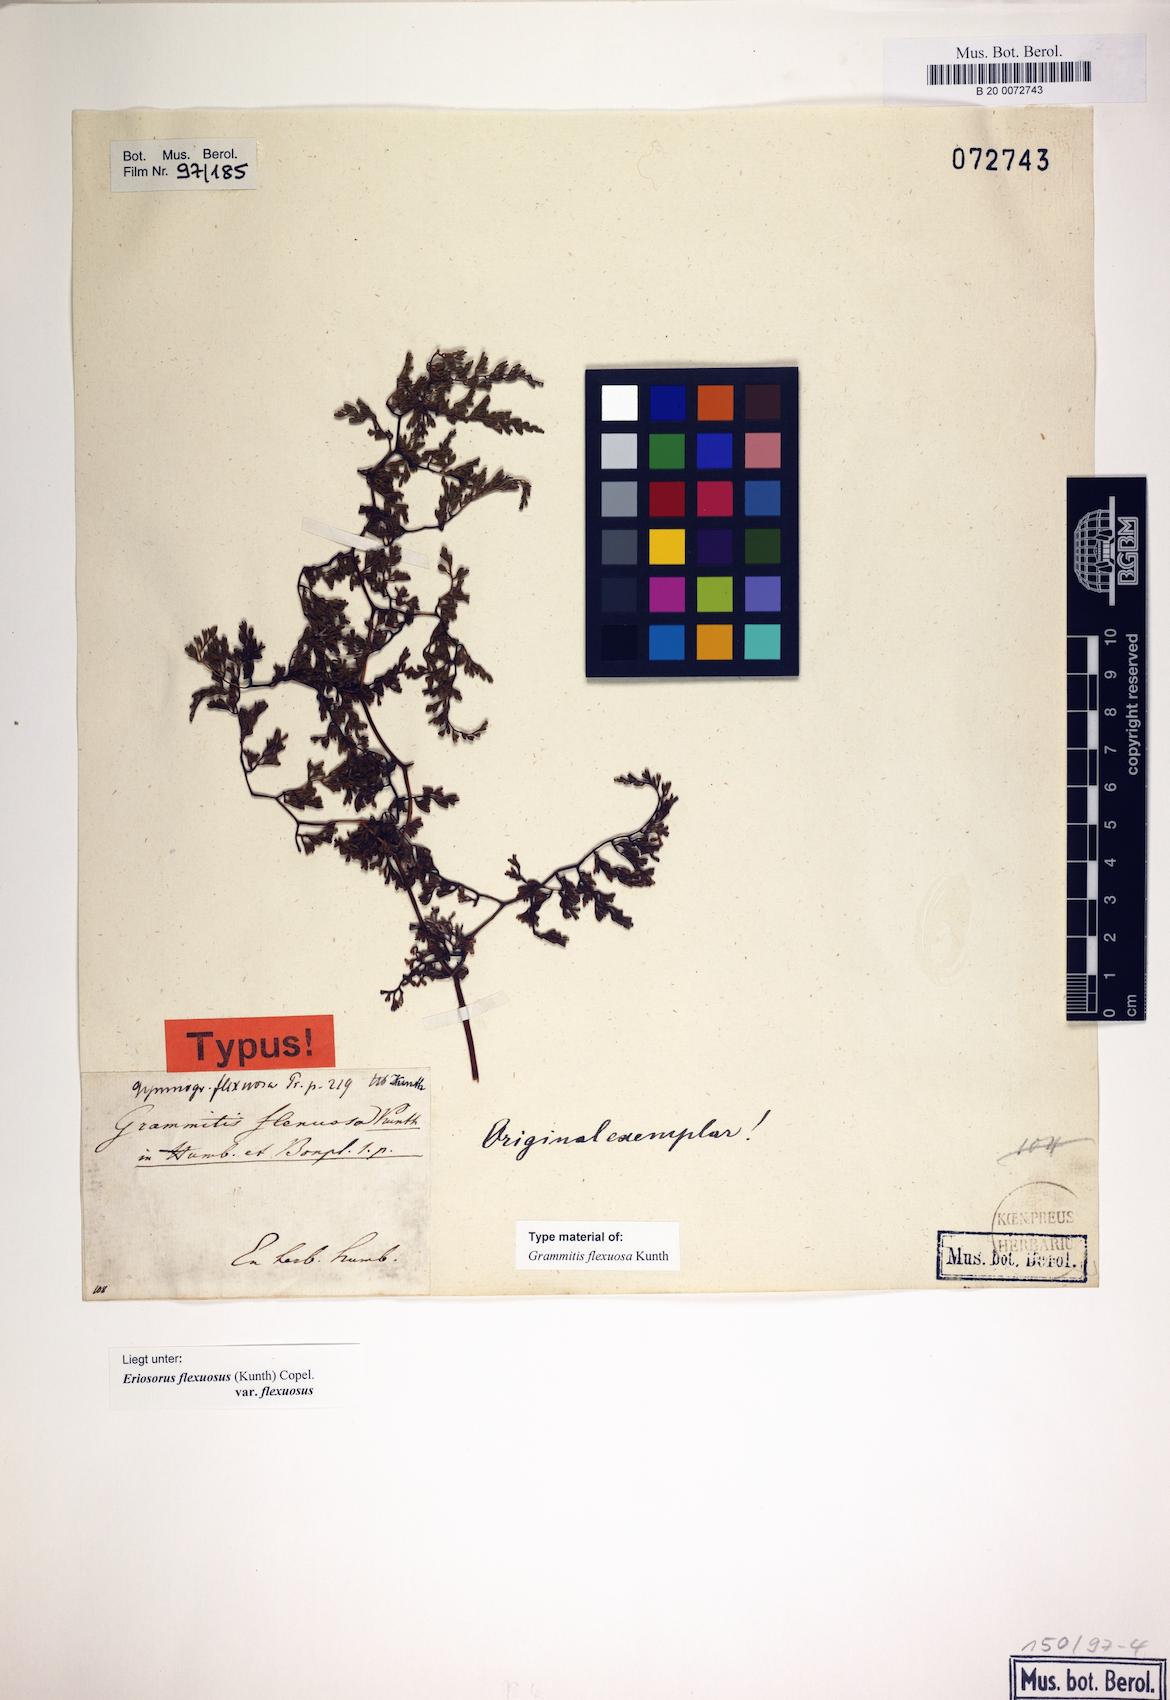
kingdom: Plantae
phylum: Tracheophyta
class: Polypodiopsida
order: Polypodiales
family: Pteridaceae
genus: Jamesonia
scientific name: Jamesonia flexuosa
